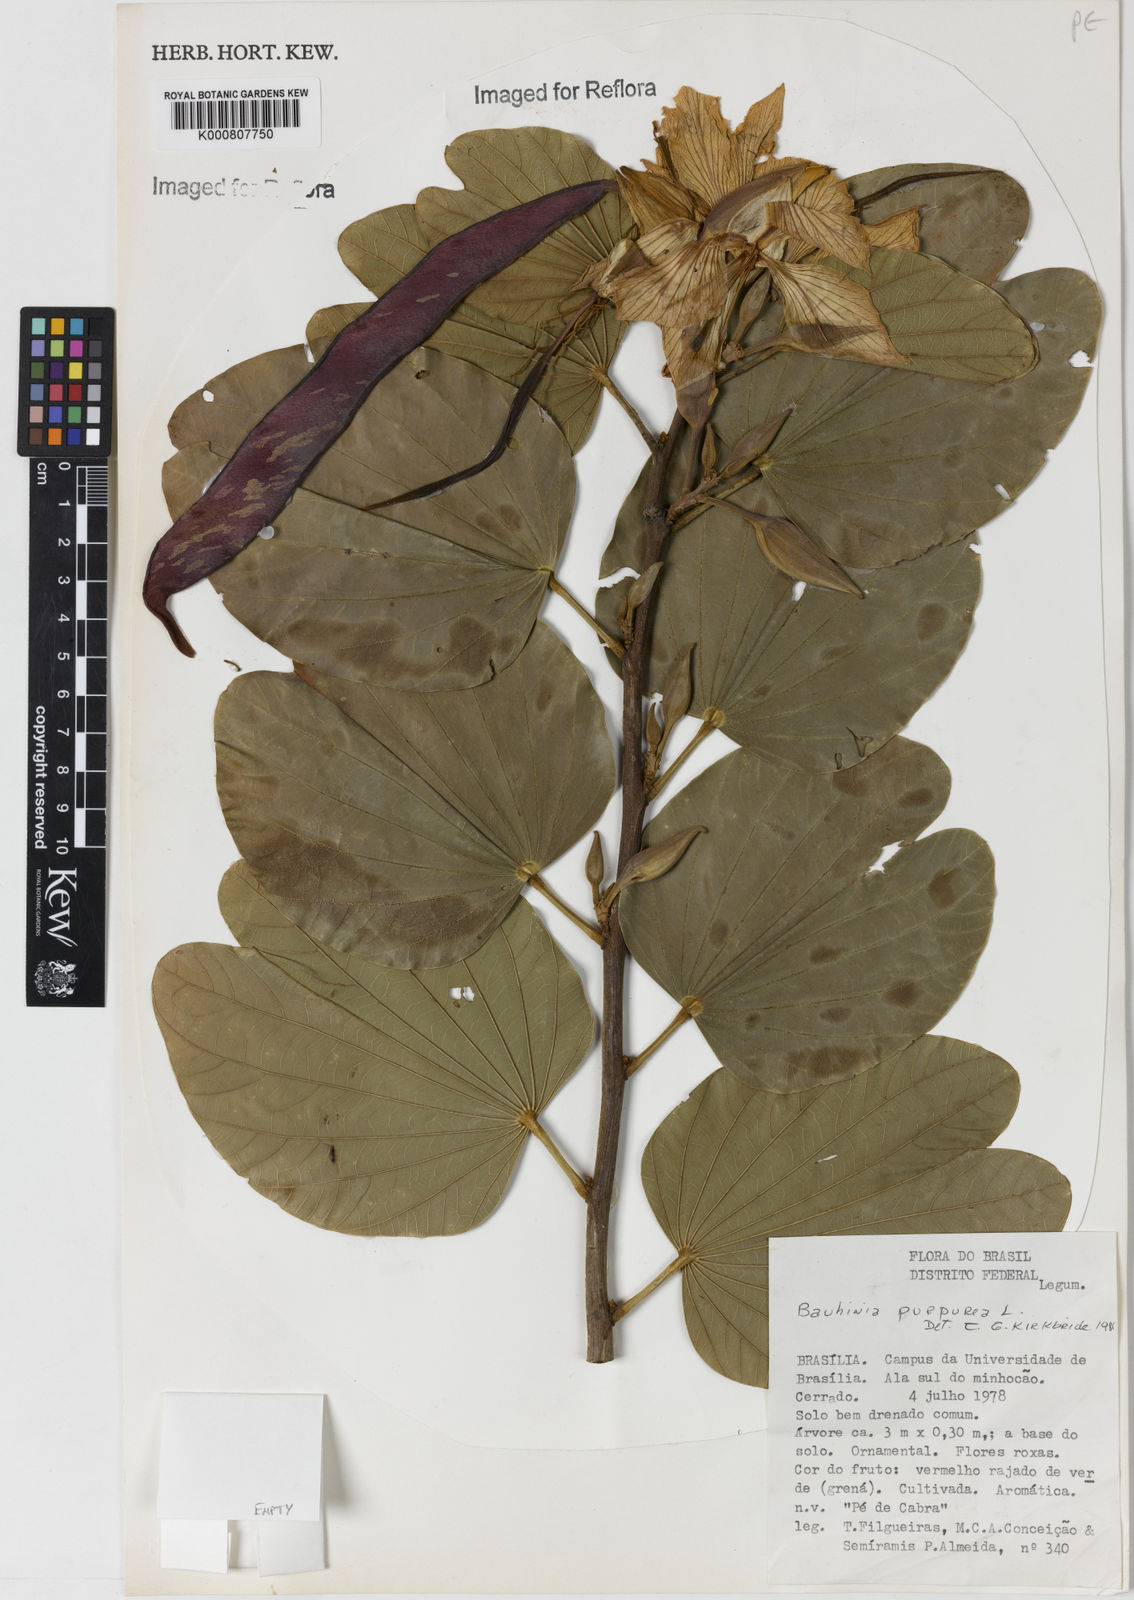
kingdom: Plantae
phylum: Tracheophyta
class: Magnoliopsida
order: Fabales
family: Fabaceae
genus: Bauhinia
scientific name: Bauhinia purpurea
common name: Butterfly-tree
